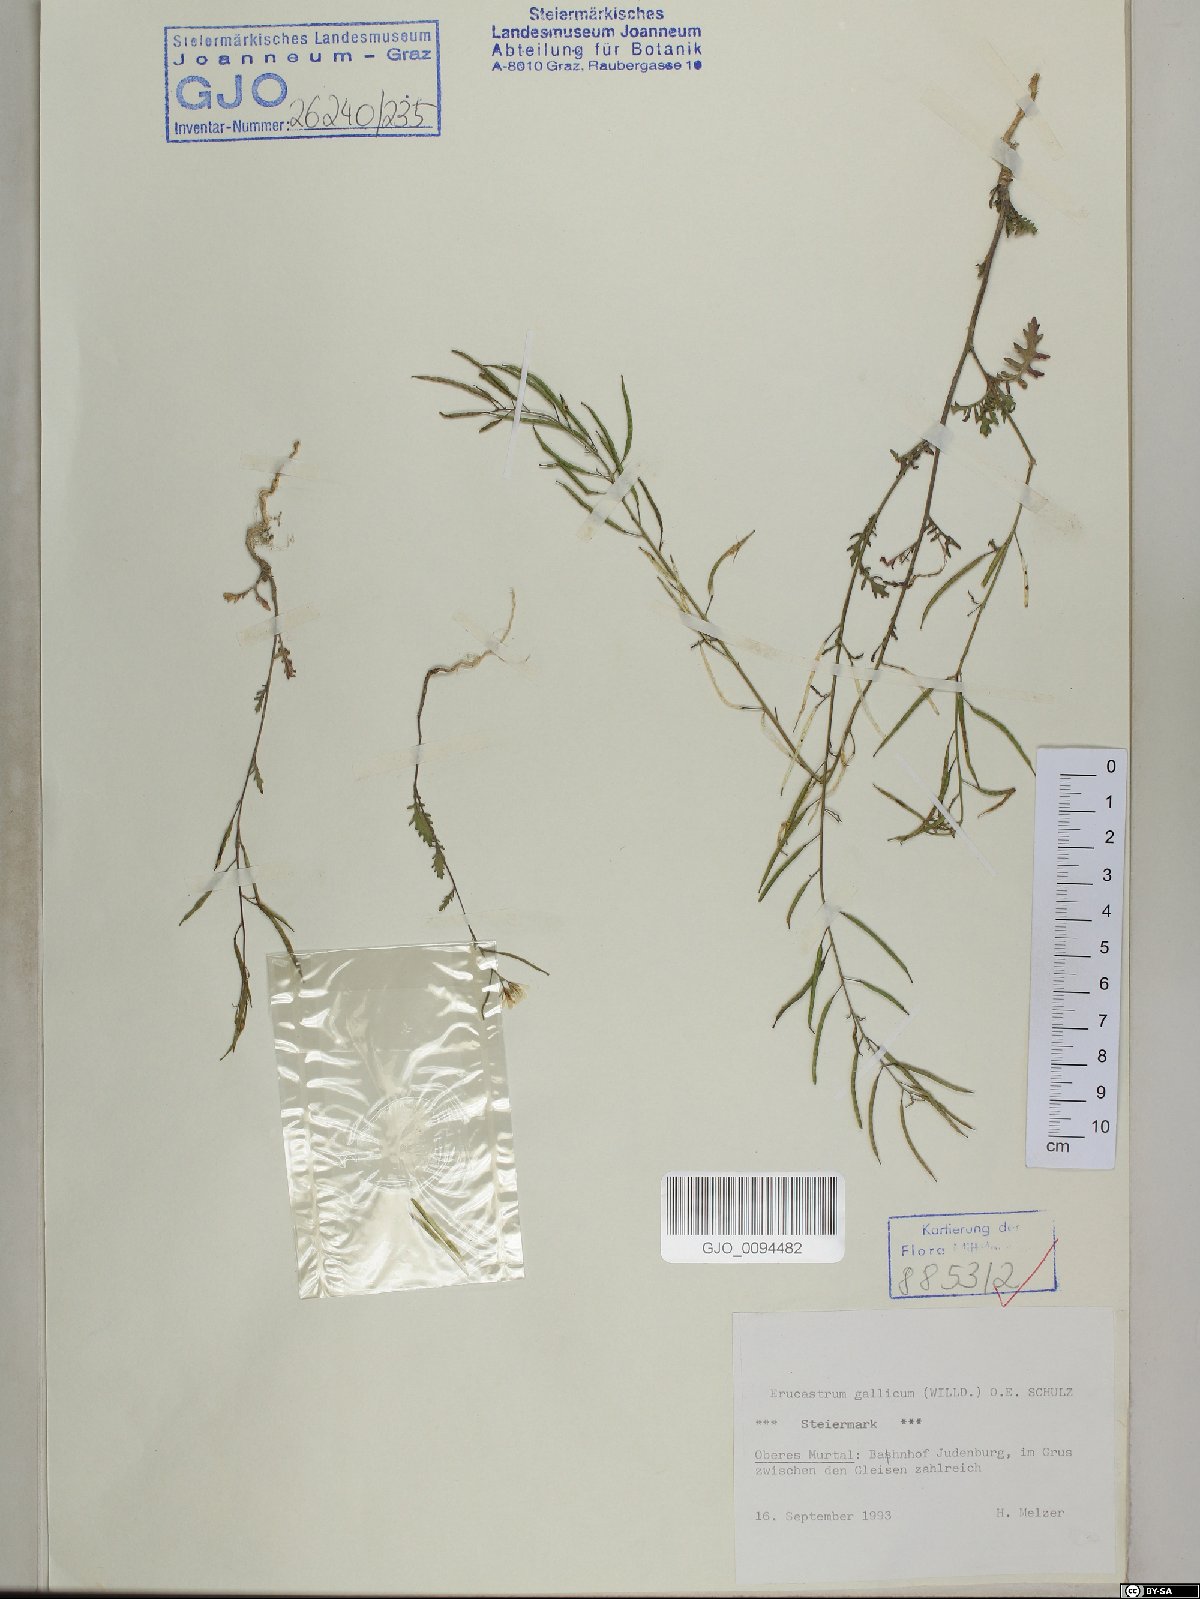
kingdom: Plantae
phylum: Tracheophyta
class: Magnoliopsida
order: Brassicales
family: Brassicaceae
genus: Erucastrum
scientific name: Erucastrum gallicum
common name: Hairy rocket
